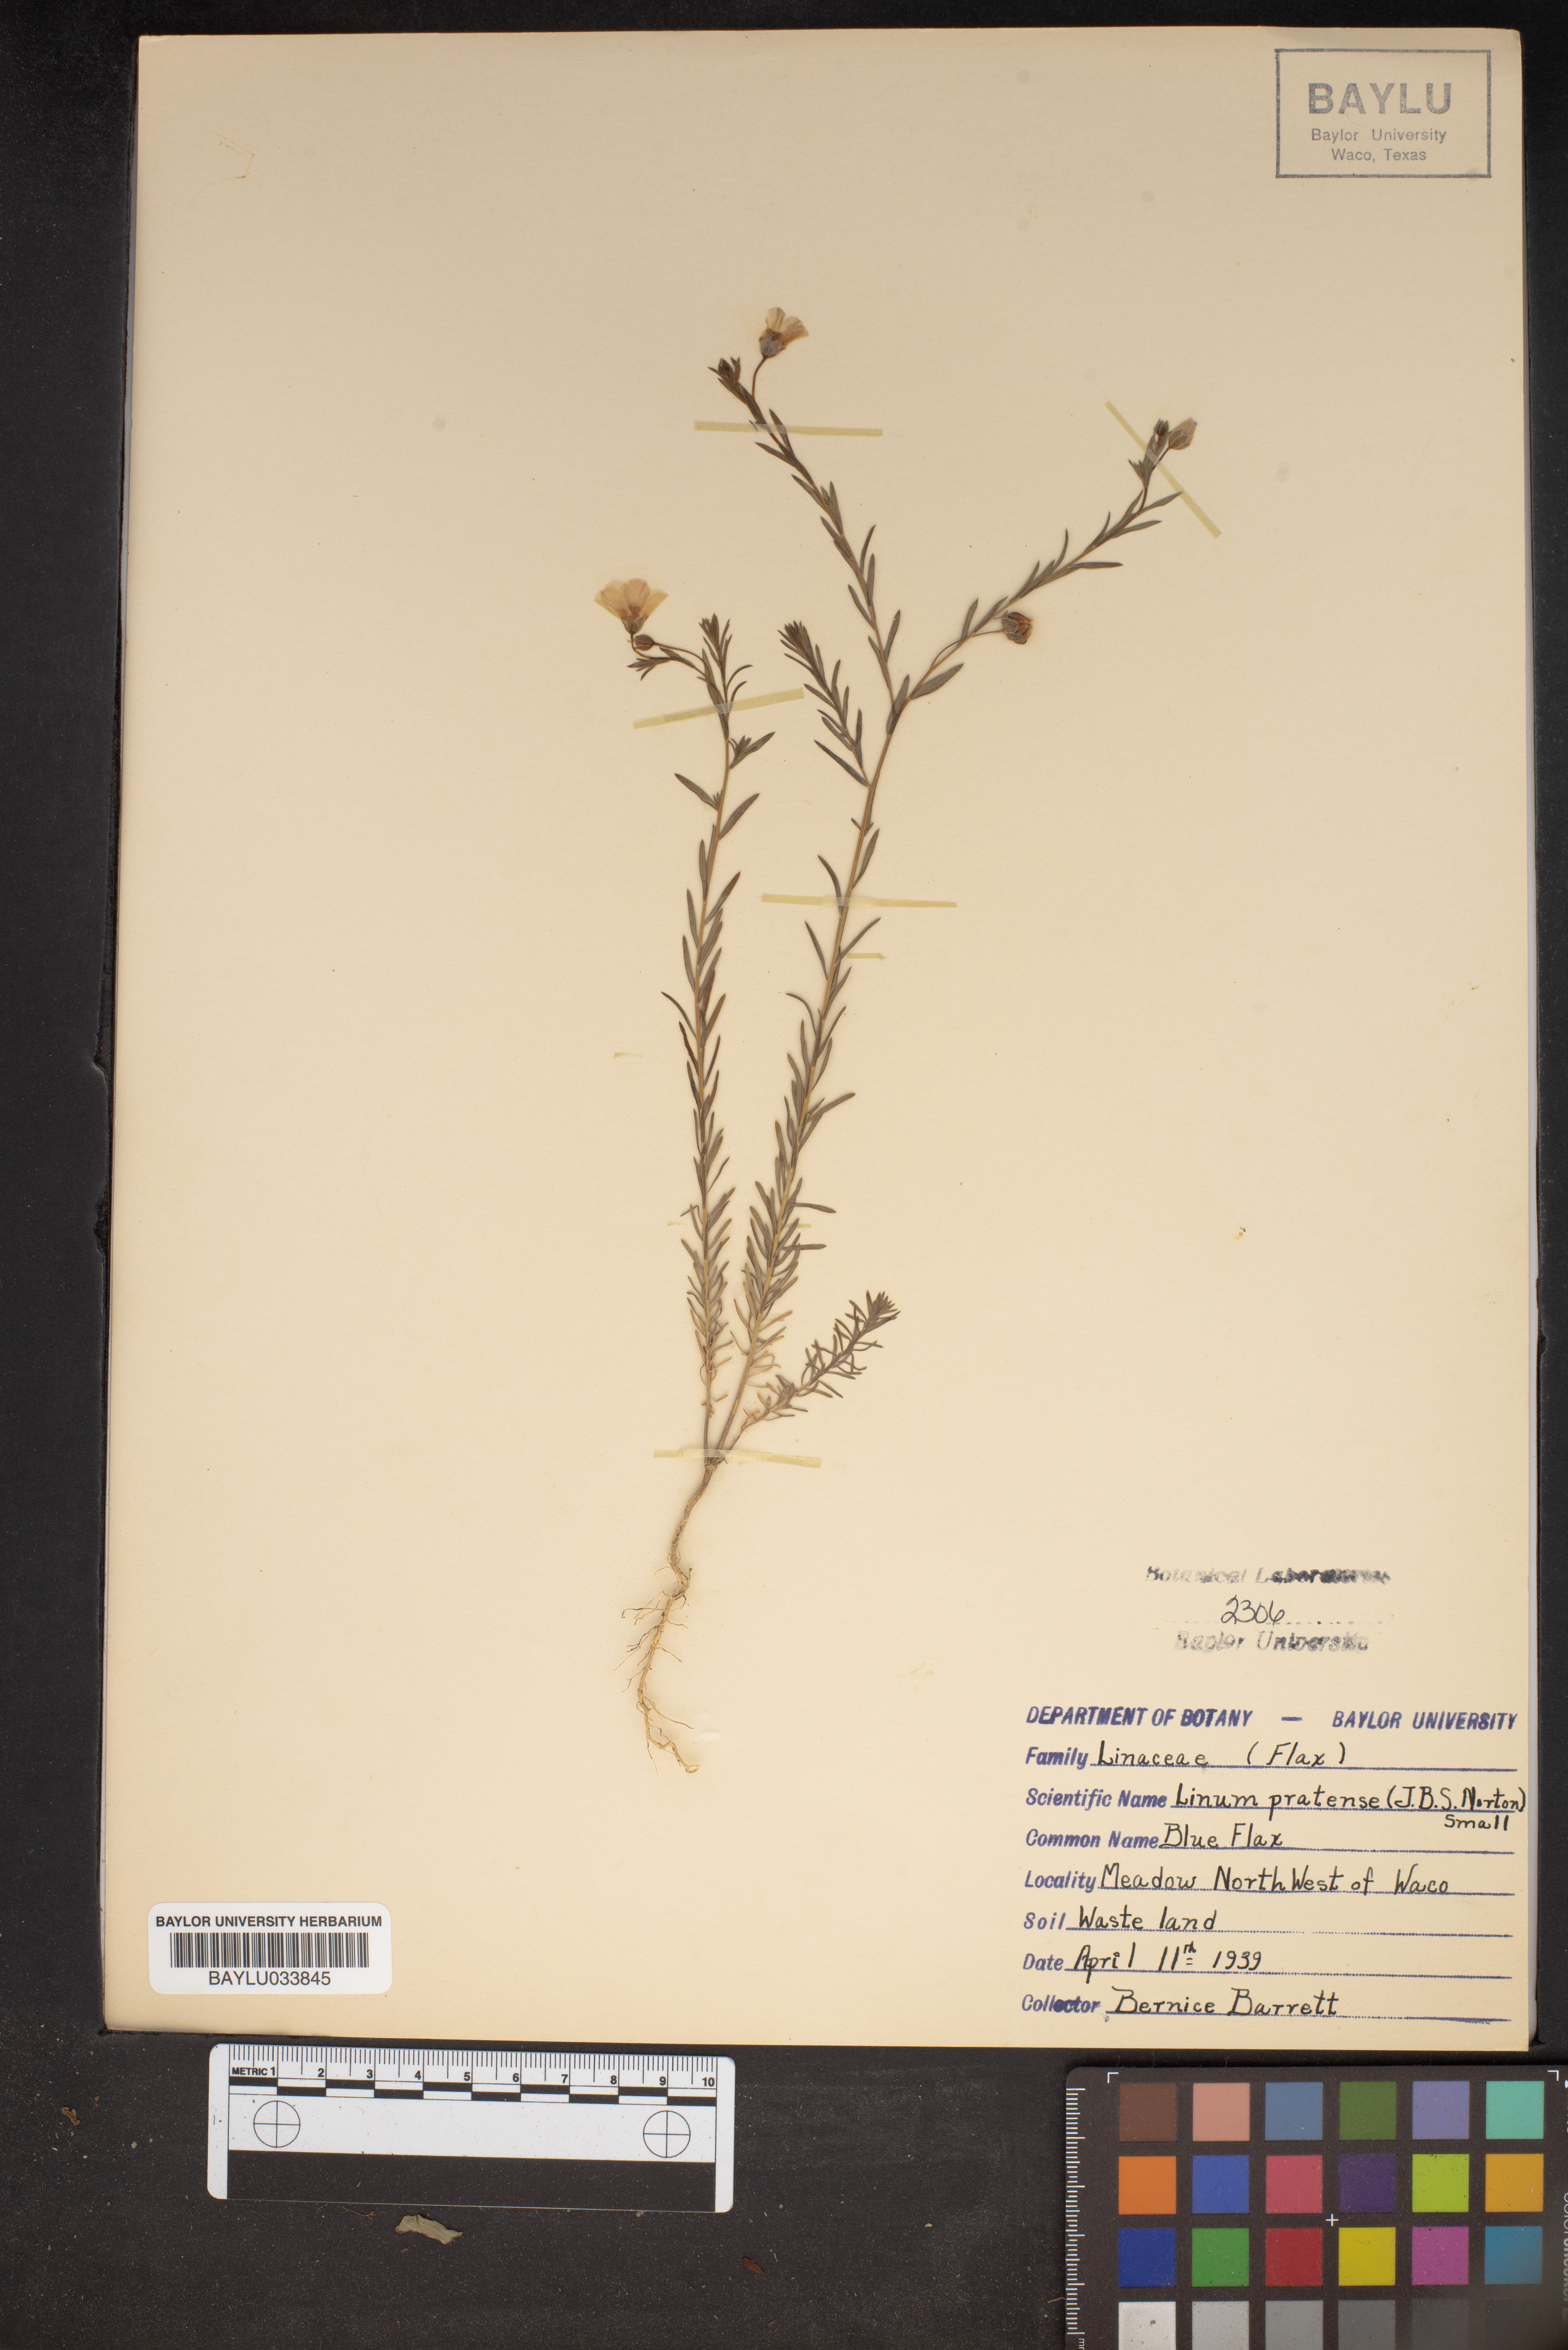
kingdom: Plantae
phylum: Tracheophyta
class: Magnoliopsida
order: Malpighiales
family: Linaceae
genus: Linum
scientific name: Linum pratense
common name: Norton's flax
